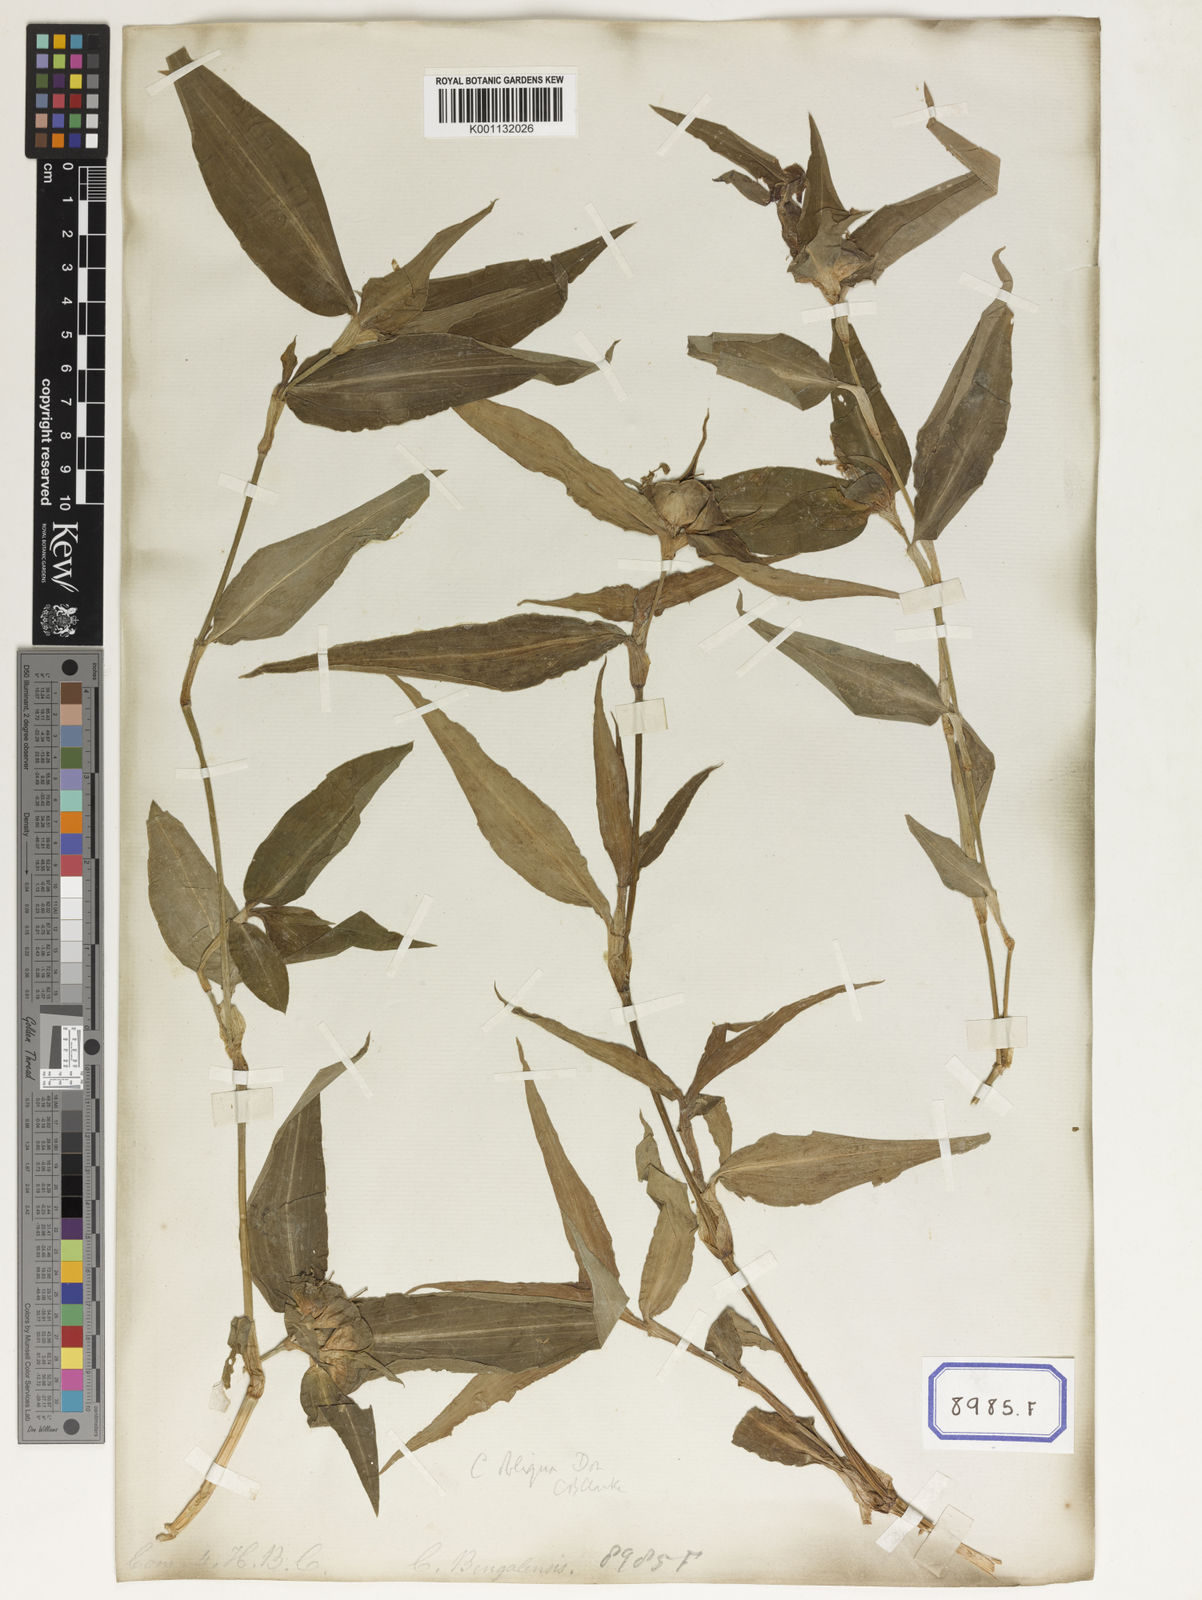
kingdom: Plantae
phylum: Tracheophyta
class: Liliopsida
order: Commelinales
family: Commelinaceae
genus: Commelina
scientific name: Commelina
